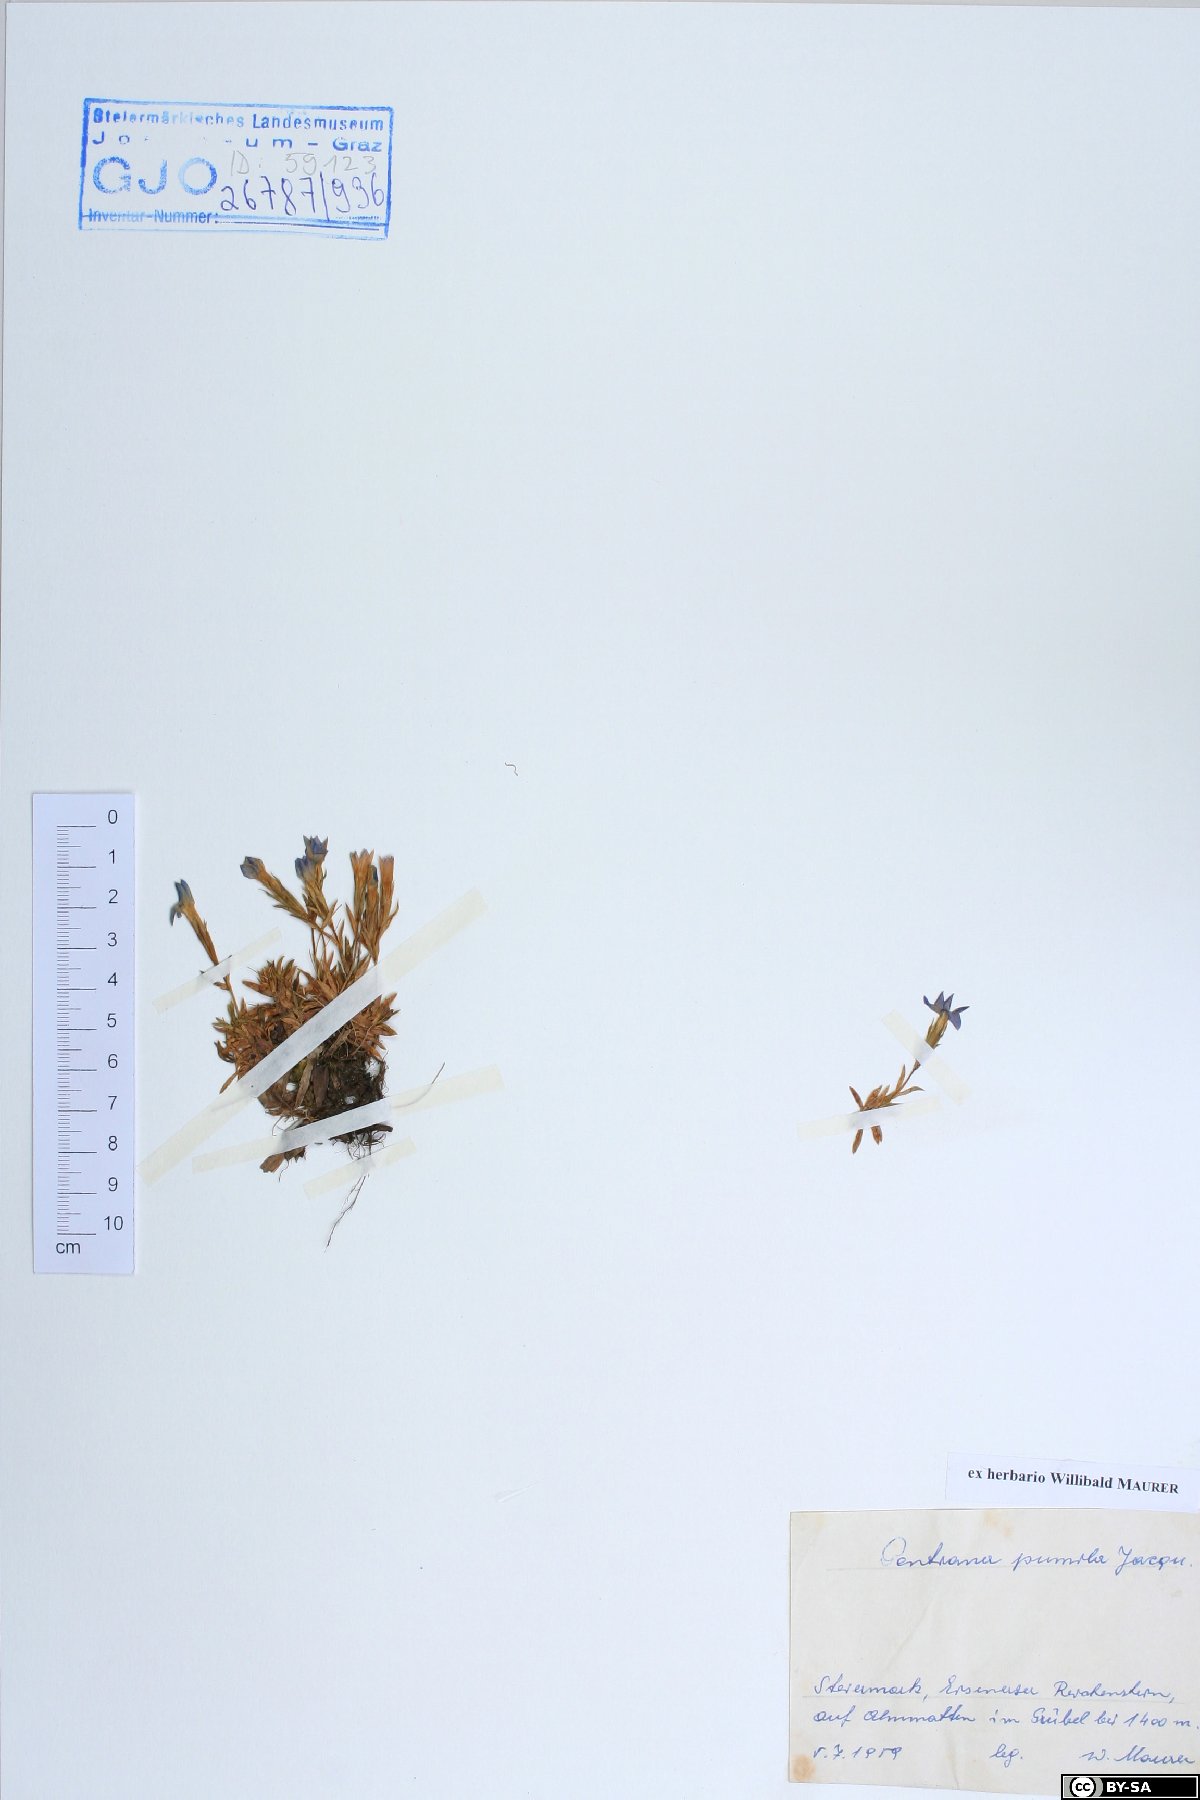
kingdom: Plantae
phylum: Tracheophyta
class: Magnoliopsida
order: Gentianales
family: Gentianaceae
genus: Gentiana
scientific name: Gentiana pumila
